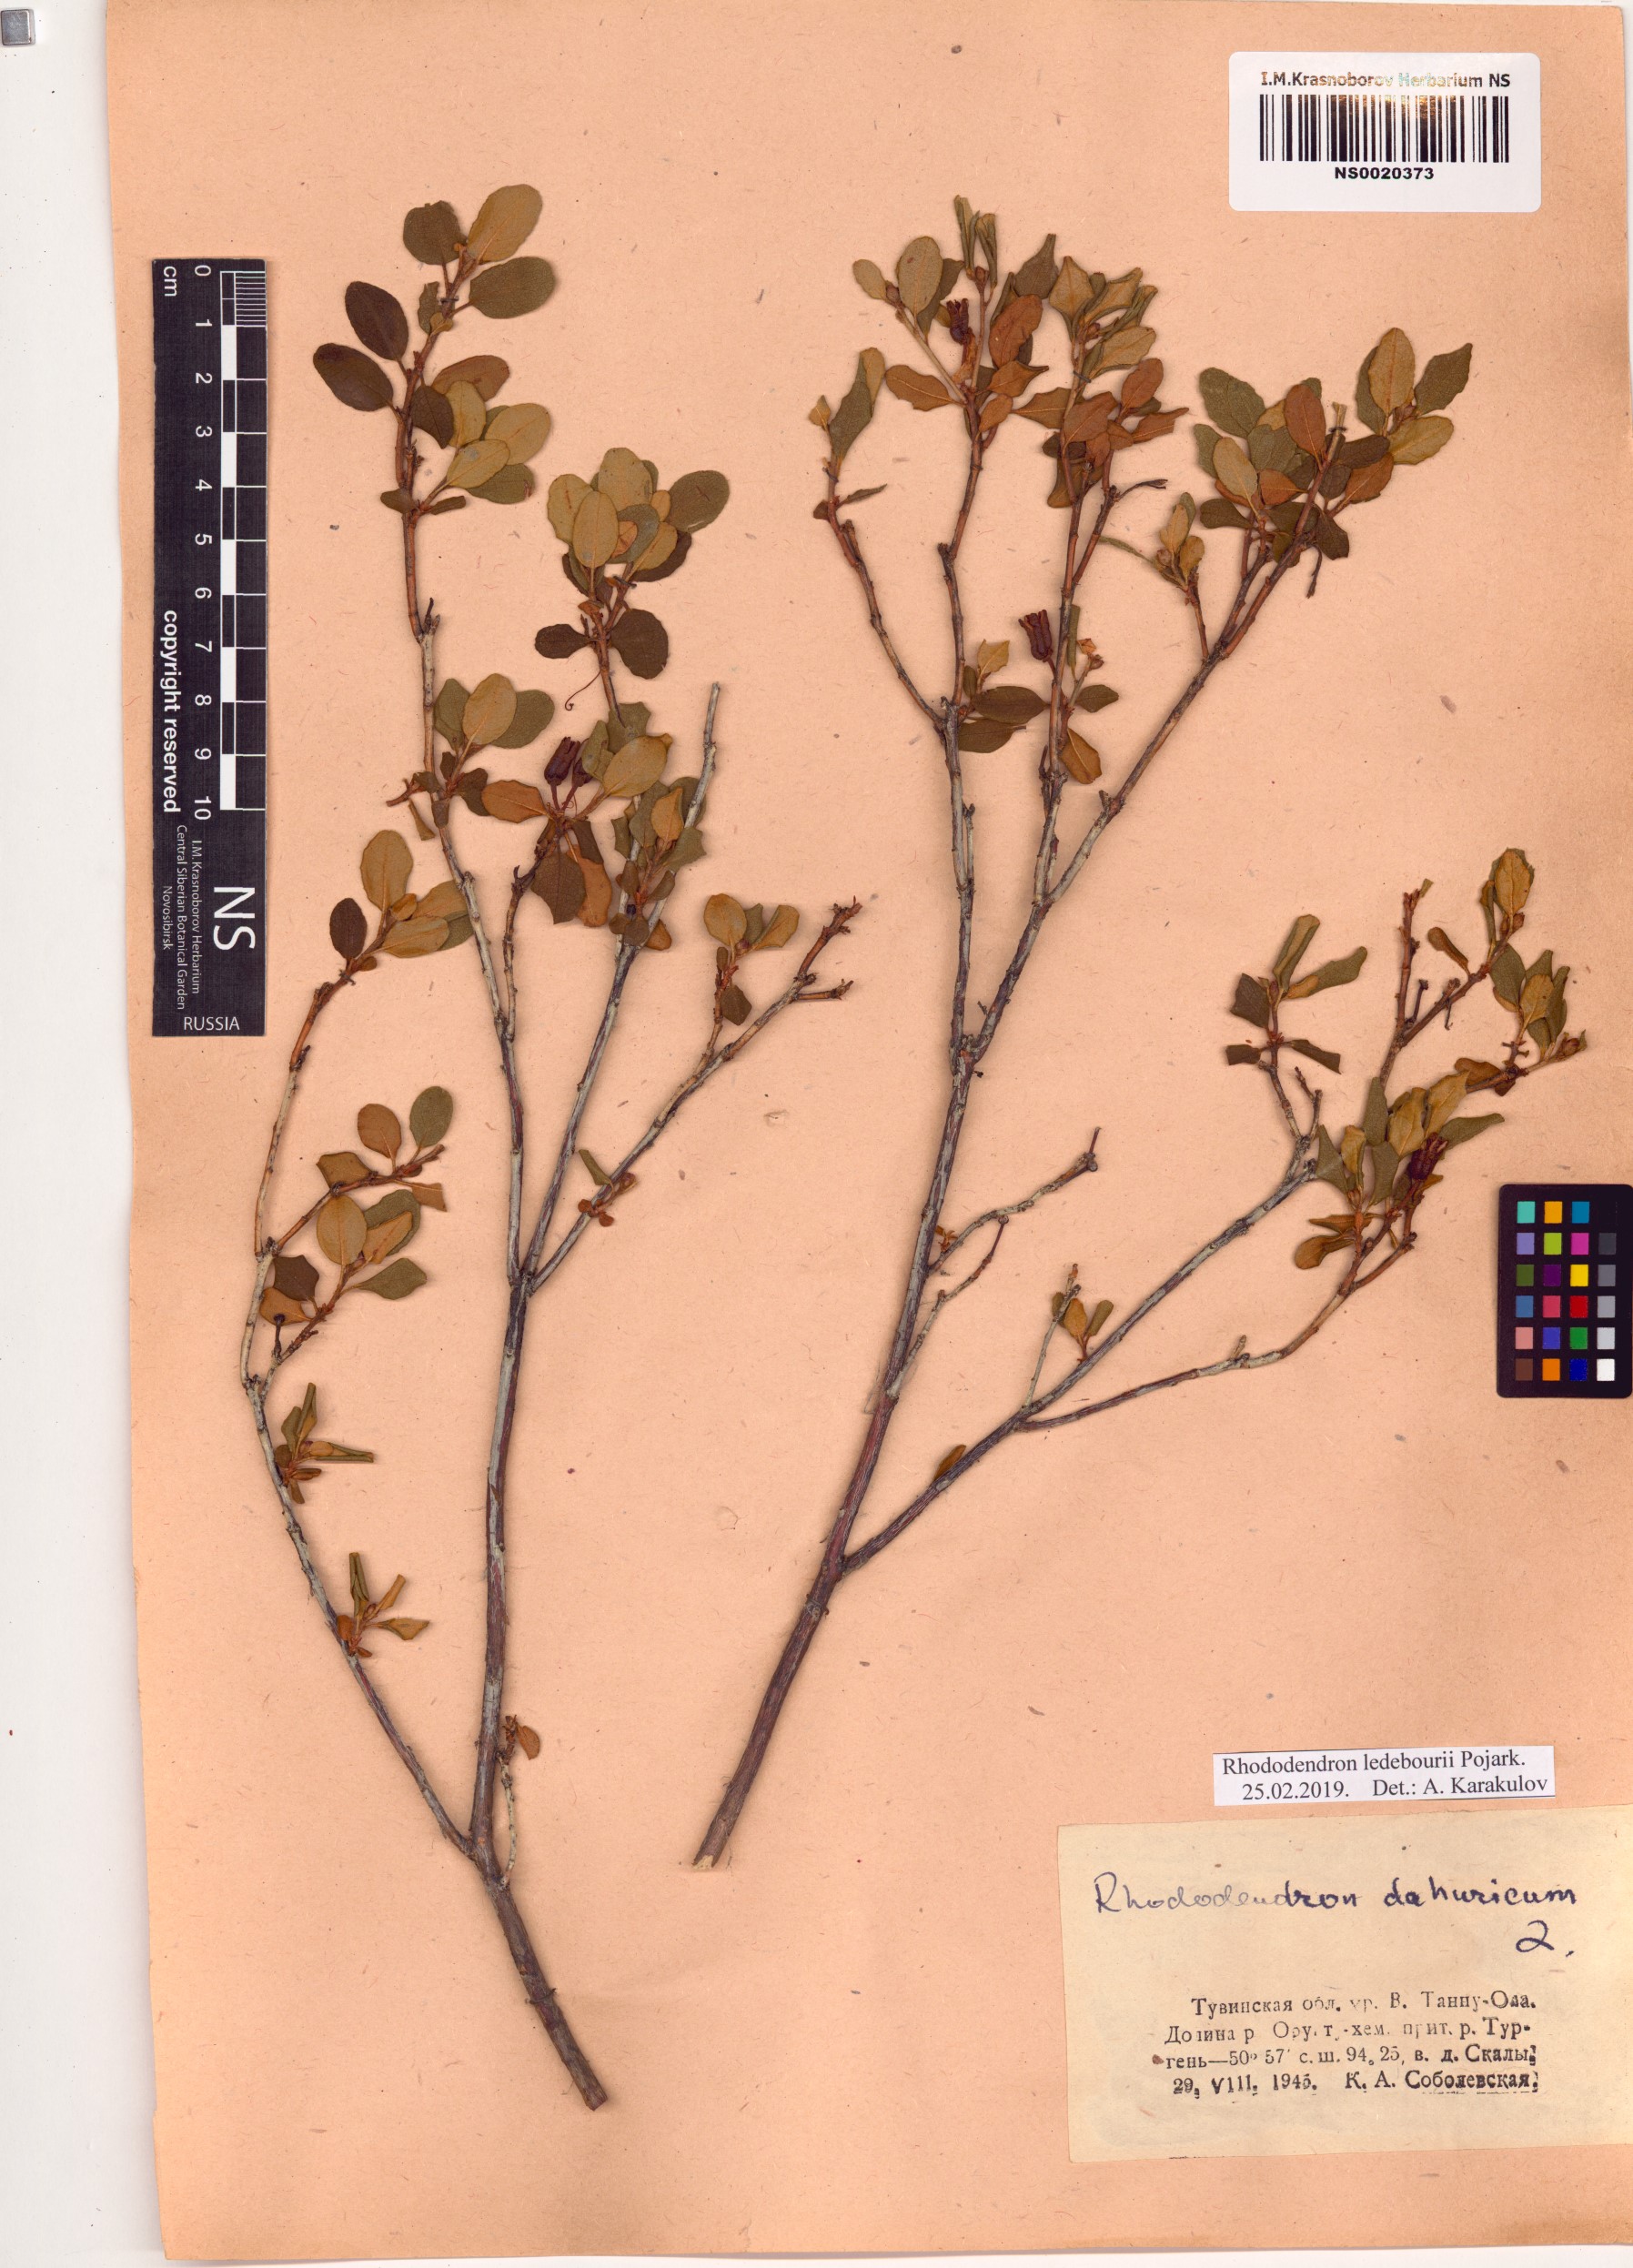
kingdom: Plantae
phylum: Tracheophyta
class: Magnoliopsida
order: Ericales
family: Ericaceae
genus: Rhododendron
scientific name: Rhododendron dauricum
